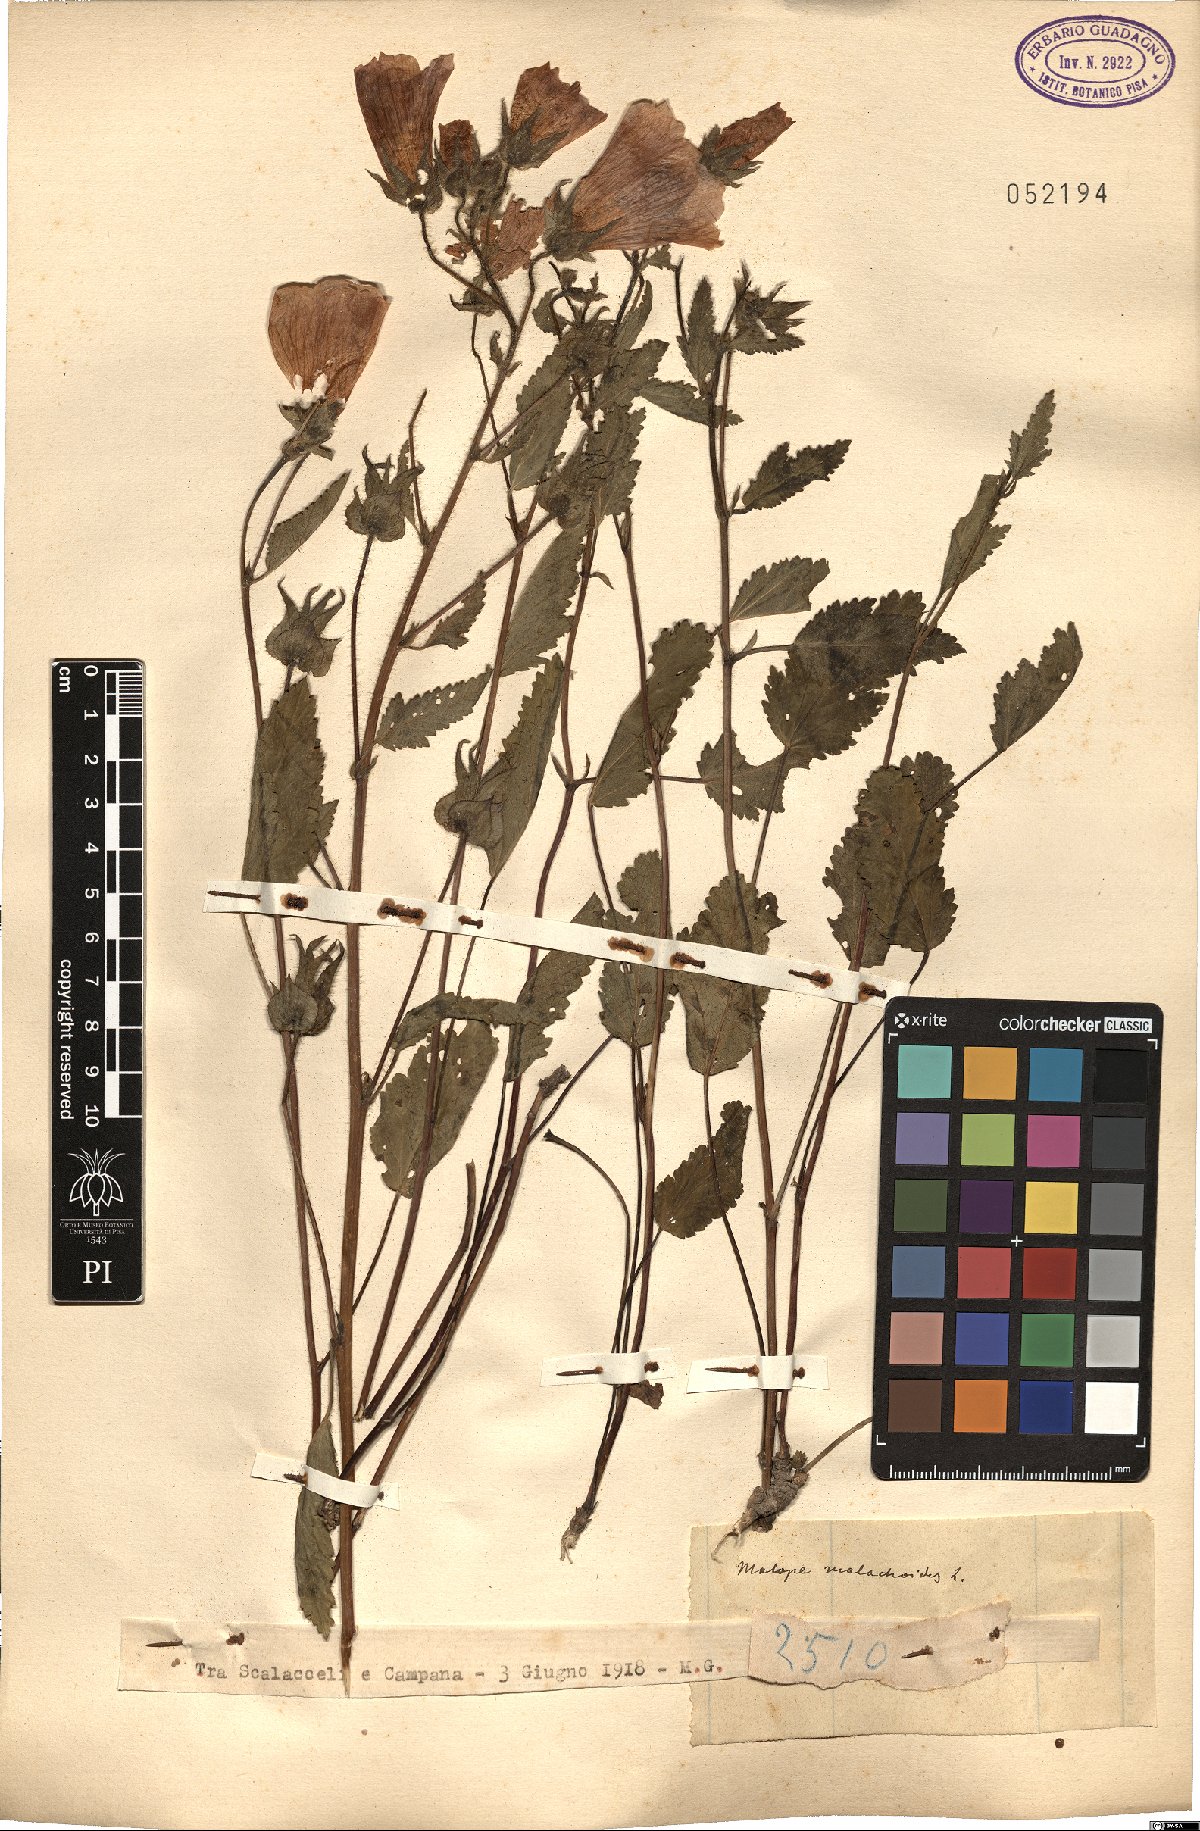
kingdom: Plantae
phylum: Tracheophyta
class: Magnoliopsida
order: Malvales
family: Malvaceae
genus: Malope
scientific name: Malope malacoides
